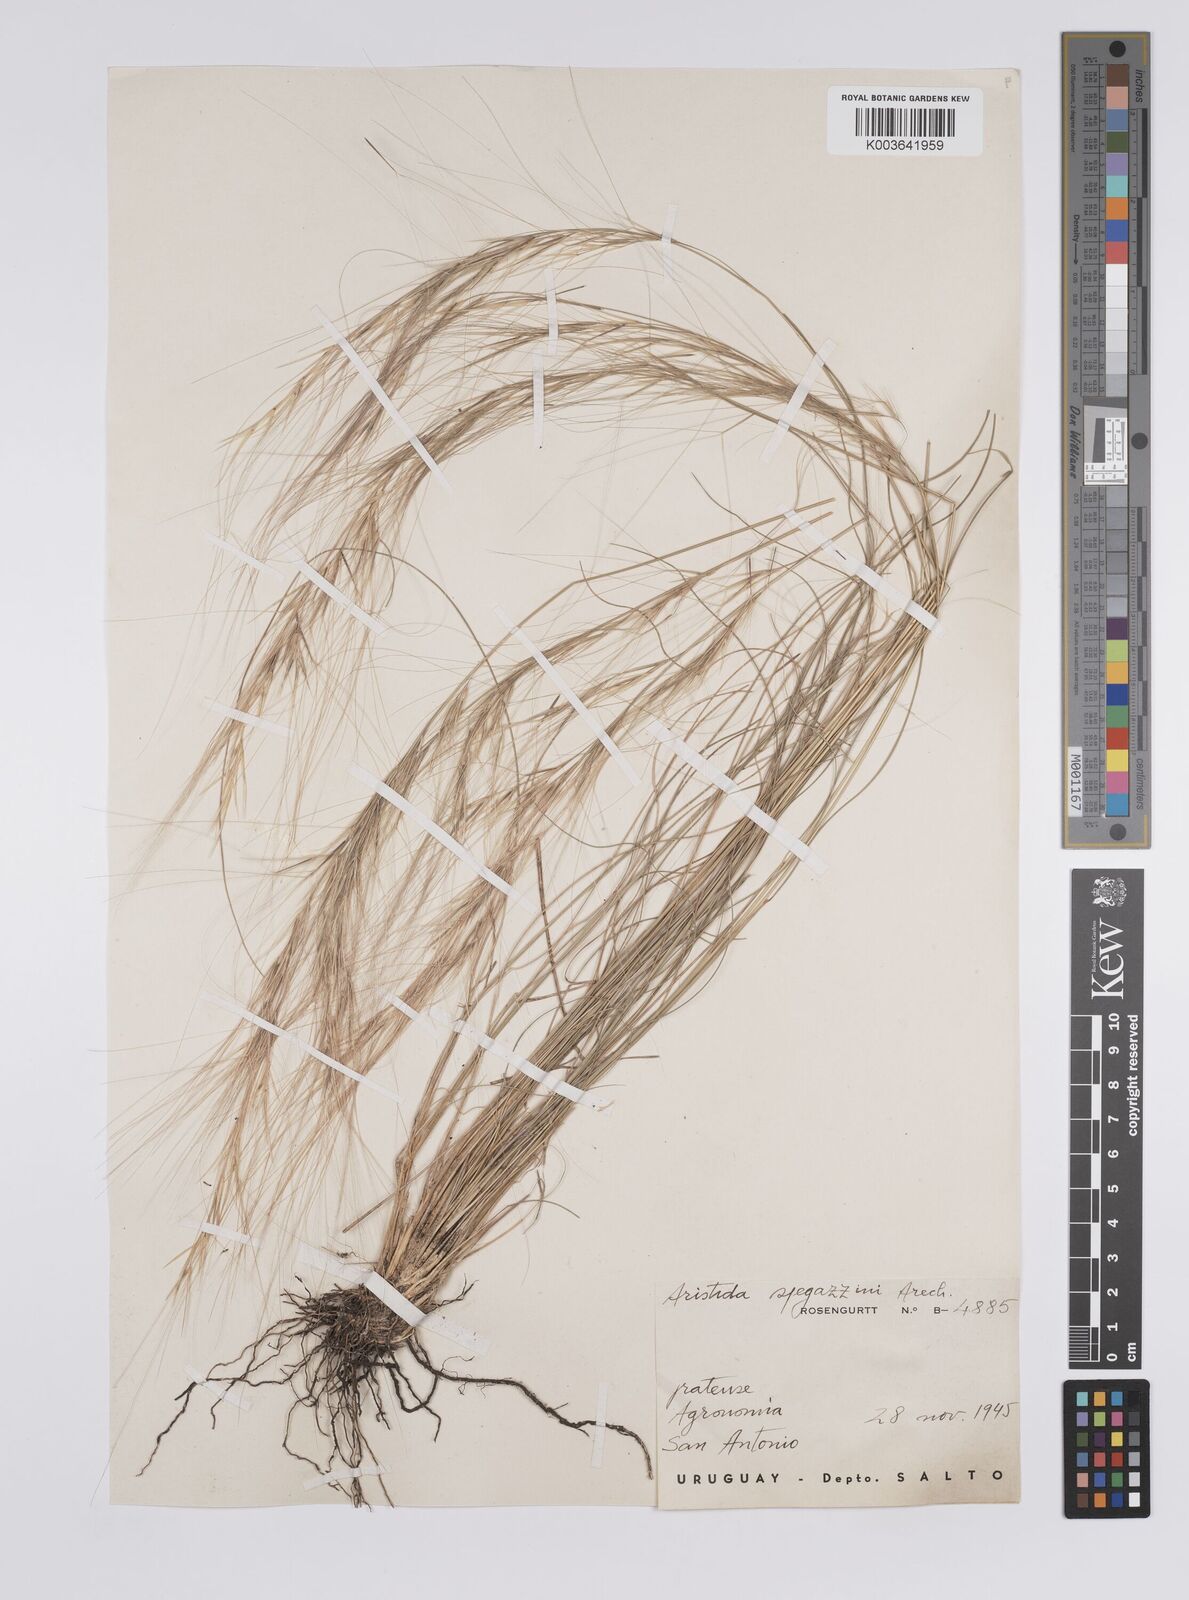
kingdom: Plantae
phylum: Tracheophyta
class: Liliopsida
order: Poales
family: Poaceae
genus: Aristida
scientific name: Aristida spegazzinii
